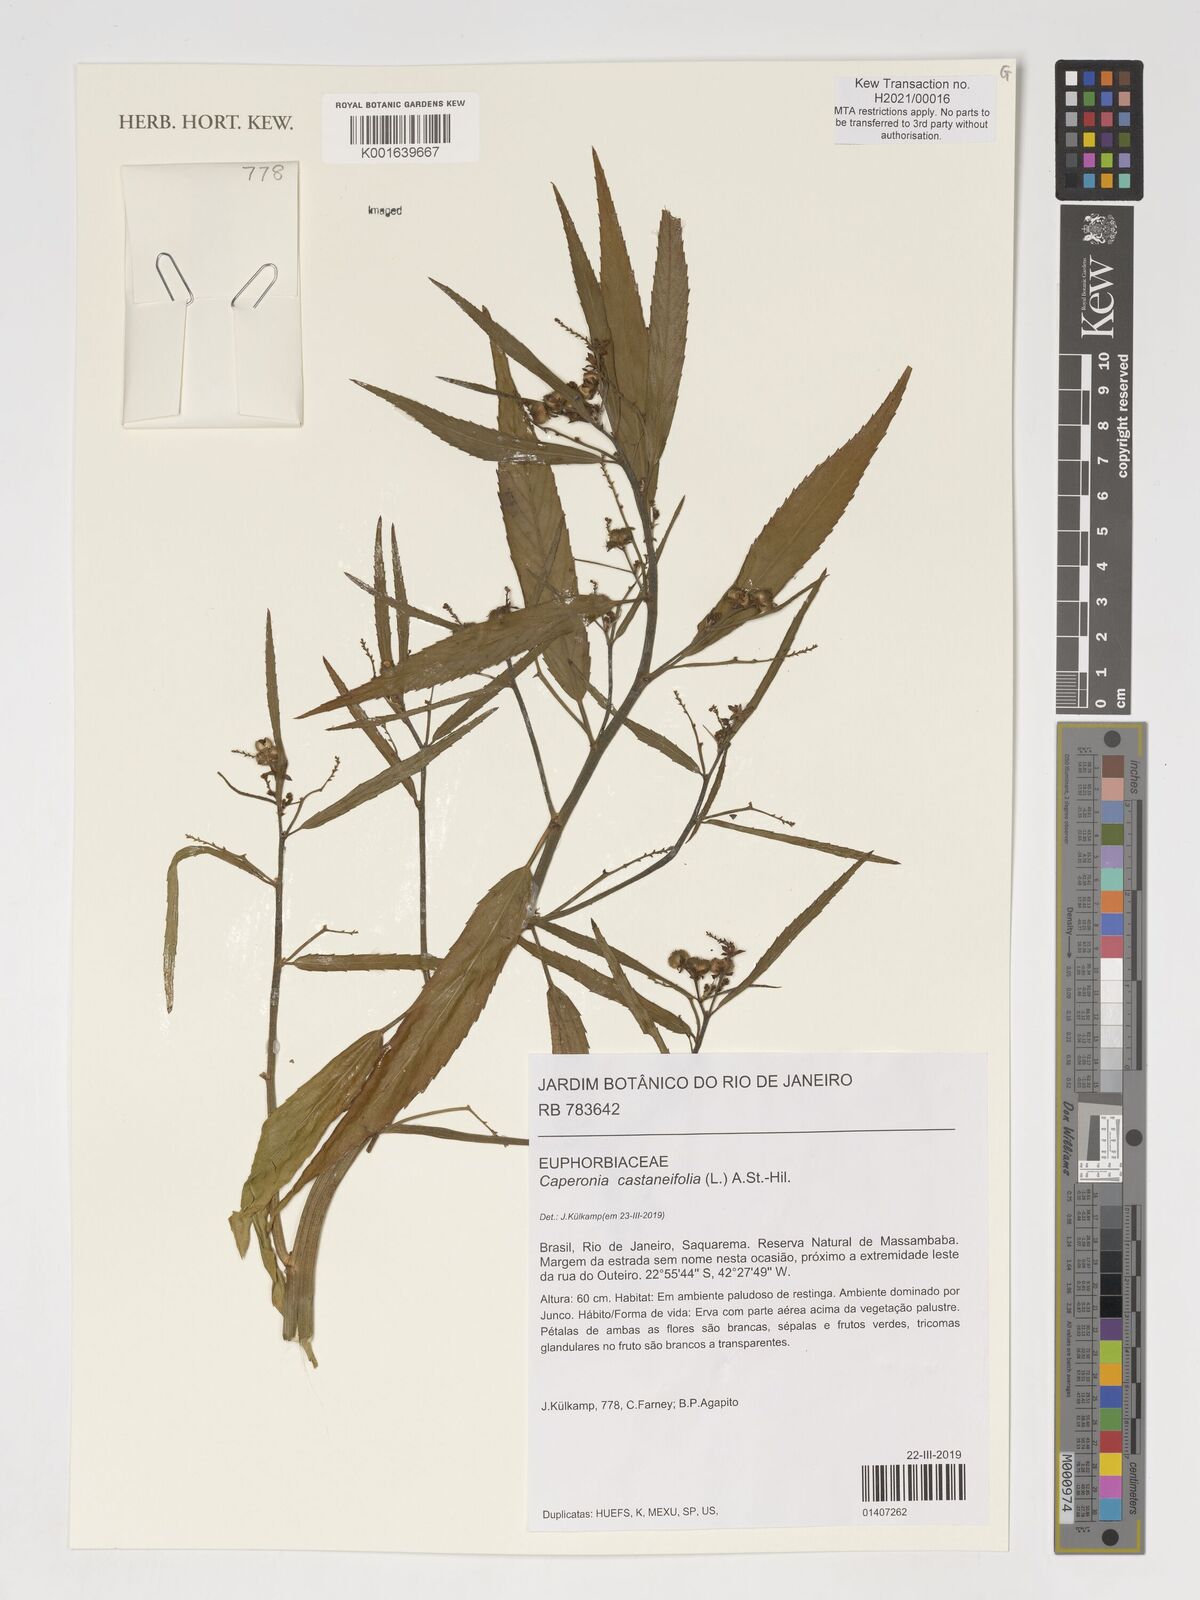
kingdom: Plantae
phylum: Tracheophyta
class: Magnoliopsida
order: Malpighiales
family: Euphorbiaceae
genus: Caperonia
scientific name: Caperonia castaneifolia
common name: Chestnutleaf false croton
